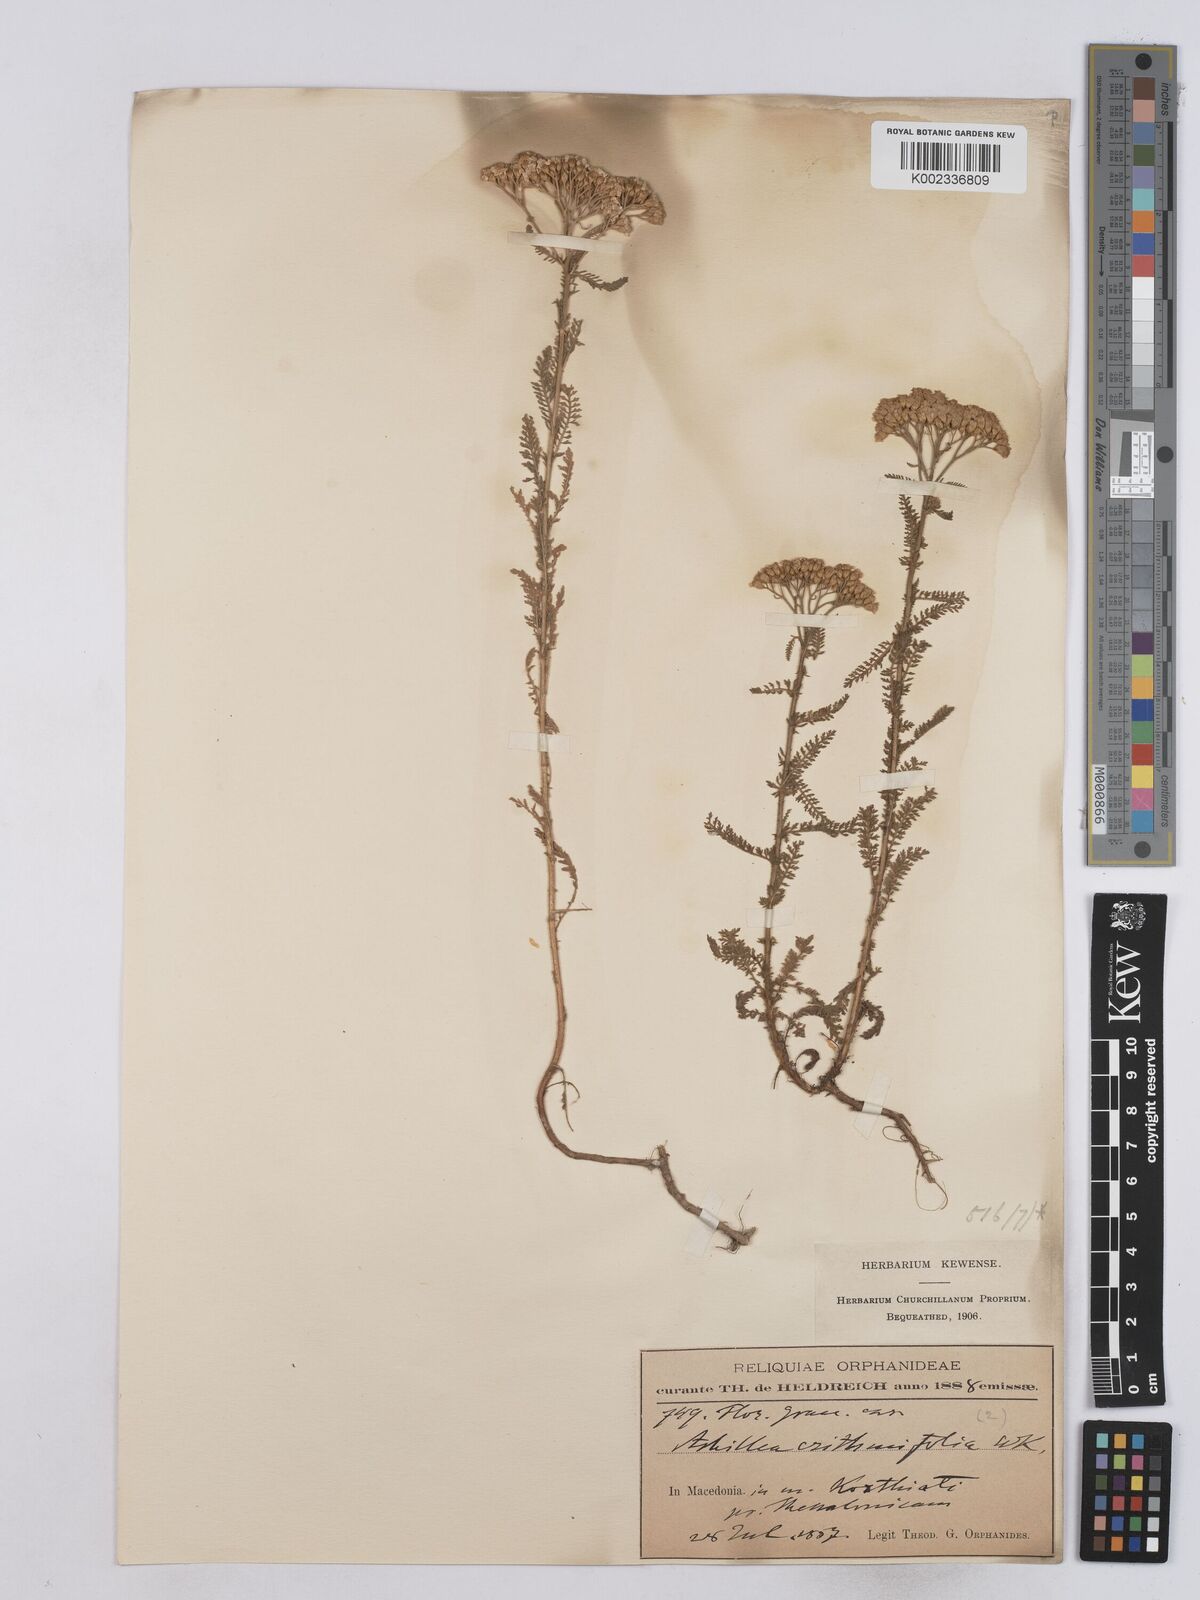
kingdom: Plantae
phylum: Tracheophyta
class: Magnoliopsida
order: Asterales
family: Asteraceae
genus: Achillea
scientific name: Achillea crithmifolia
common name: Yarrow
